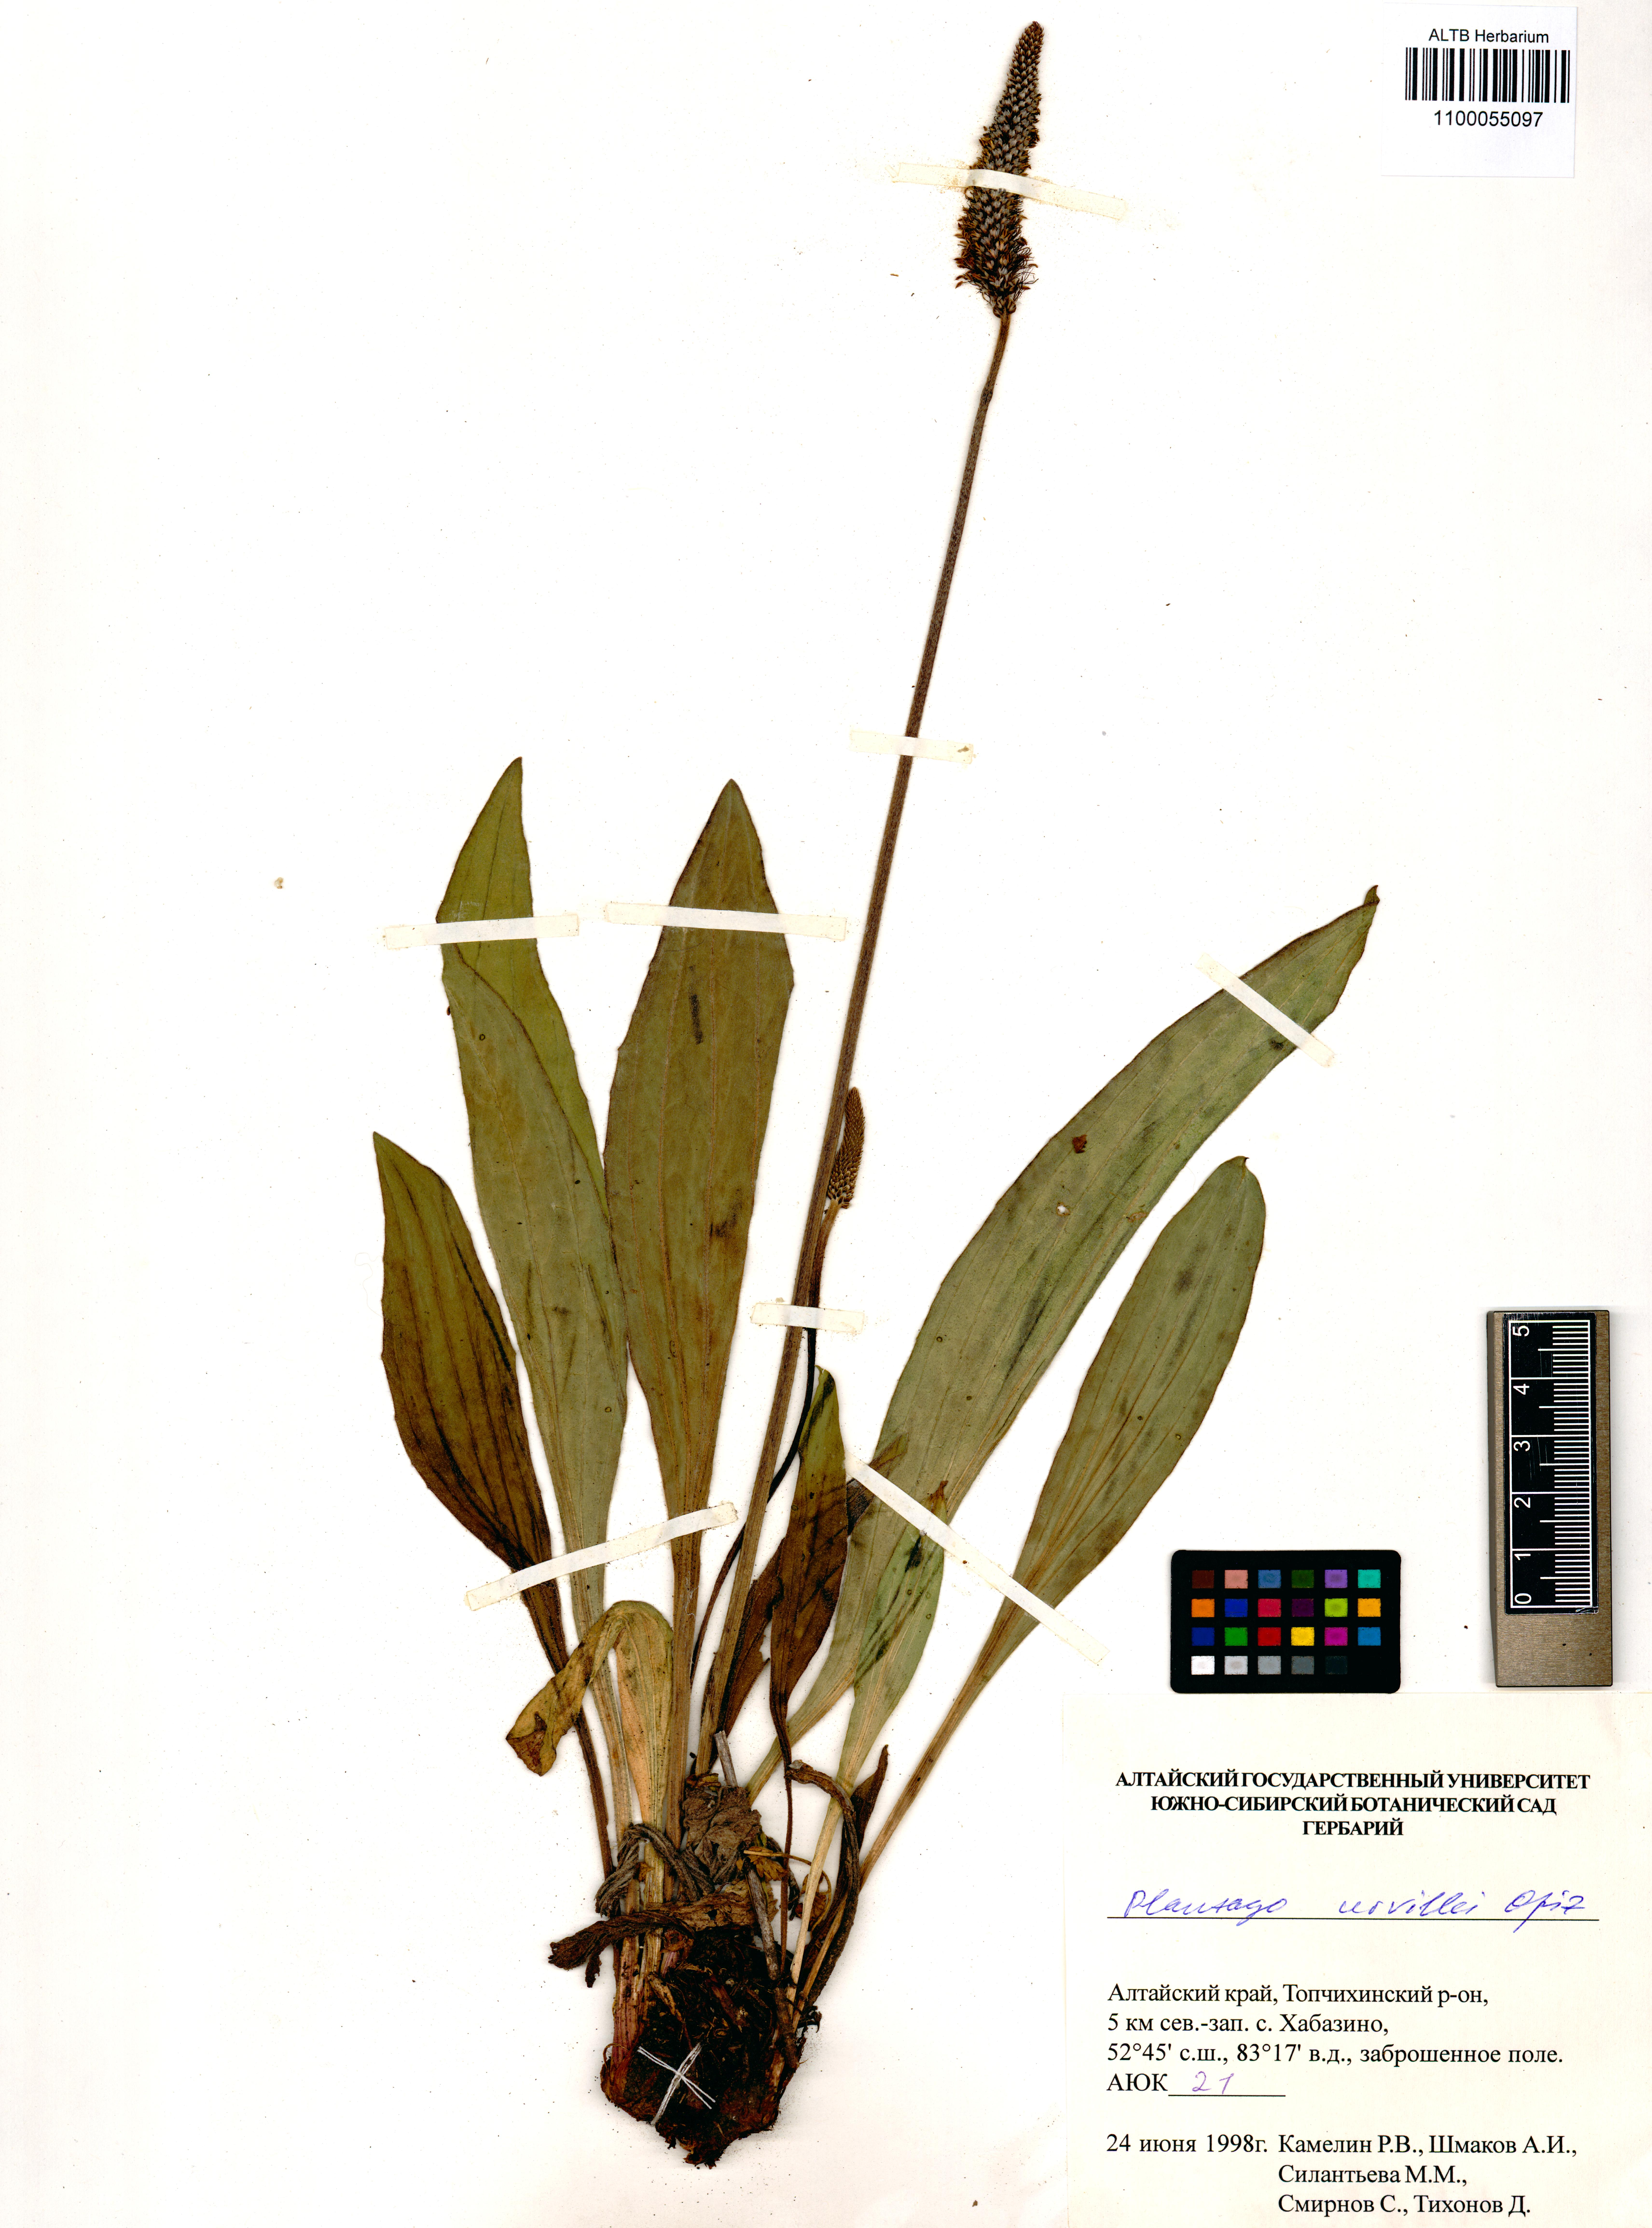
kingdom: Plantae
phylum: Tracheophyta
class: Magnoliopsida
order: Lamiales
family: Plantaginaceae
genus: Plantago
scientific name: Plantago urvillei
